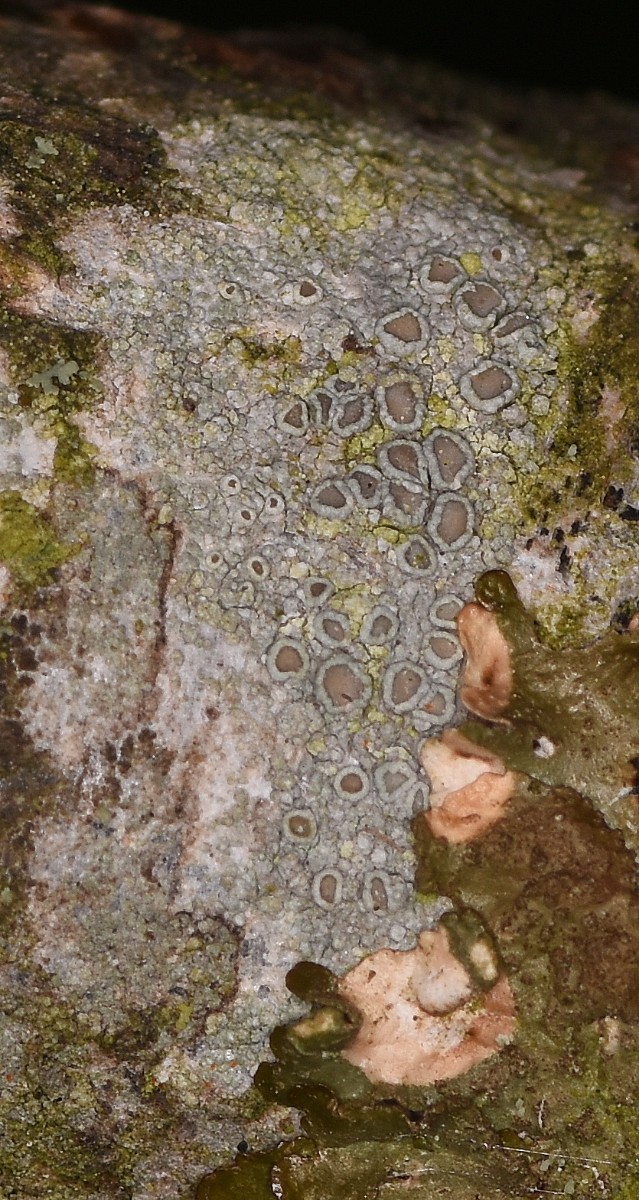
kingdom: Fungi
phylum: Ascomycota
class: Lecanoromycetes
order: Lecanorales
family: Lecanoraceae
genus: Lecanora
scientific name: Lecanora chlarotera
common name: brun kantskivelav
